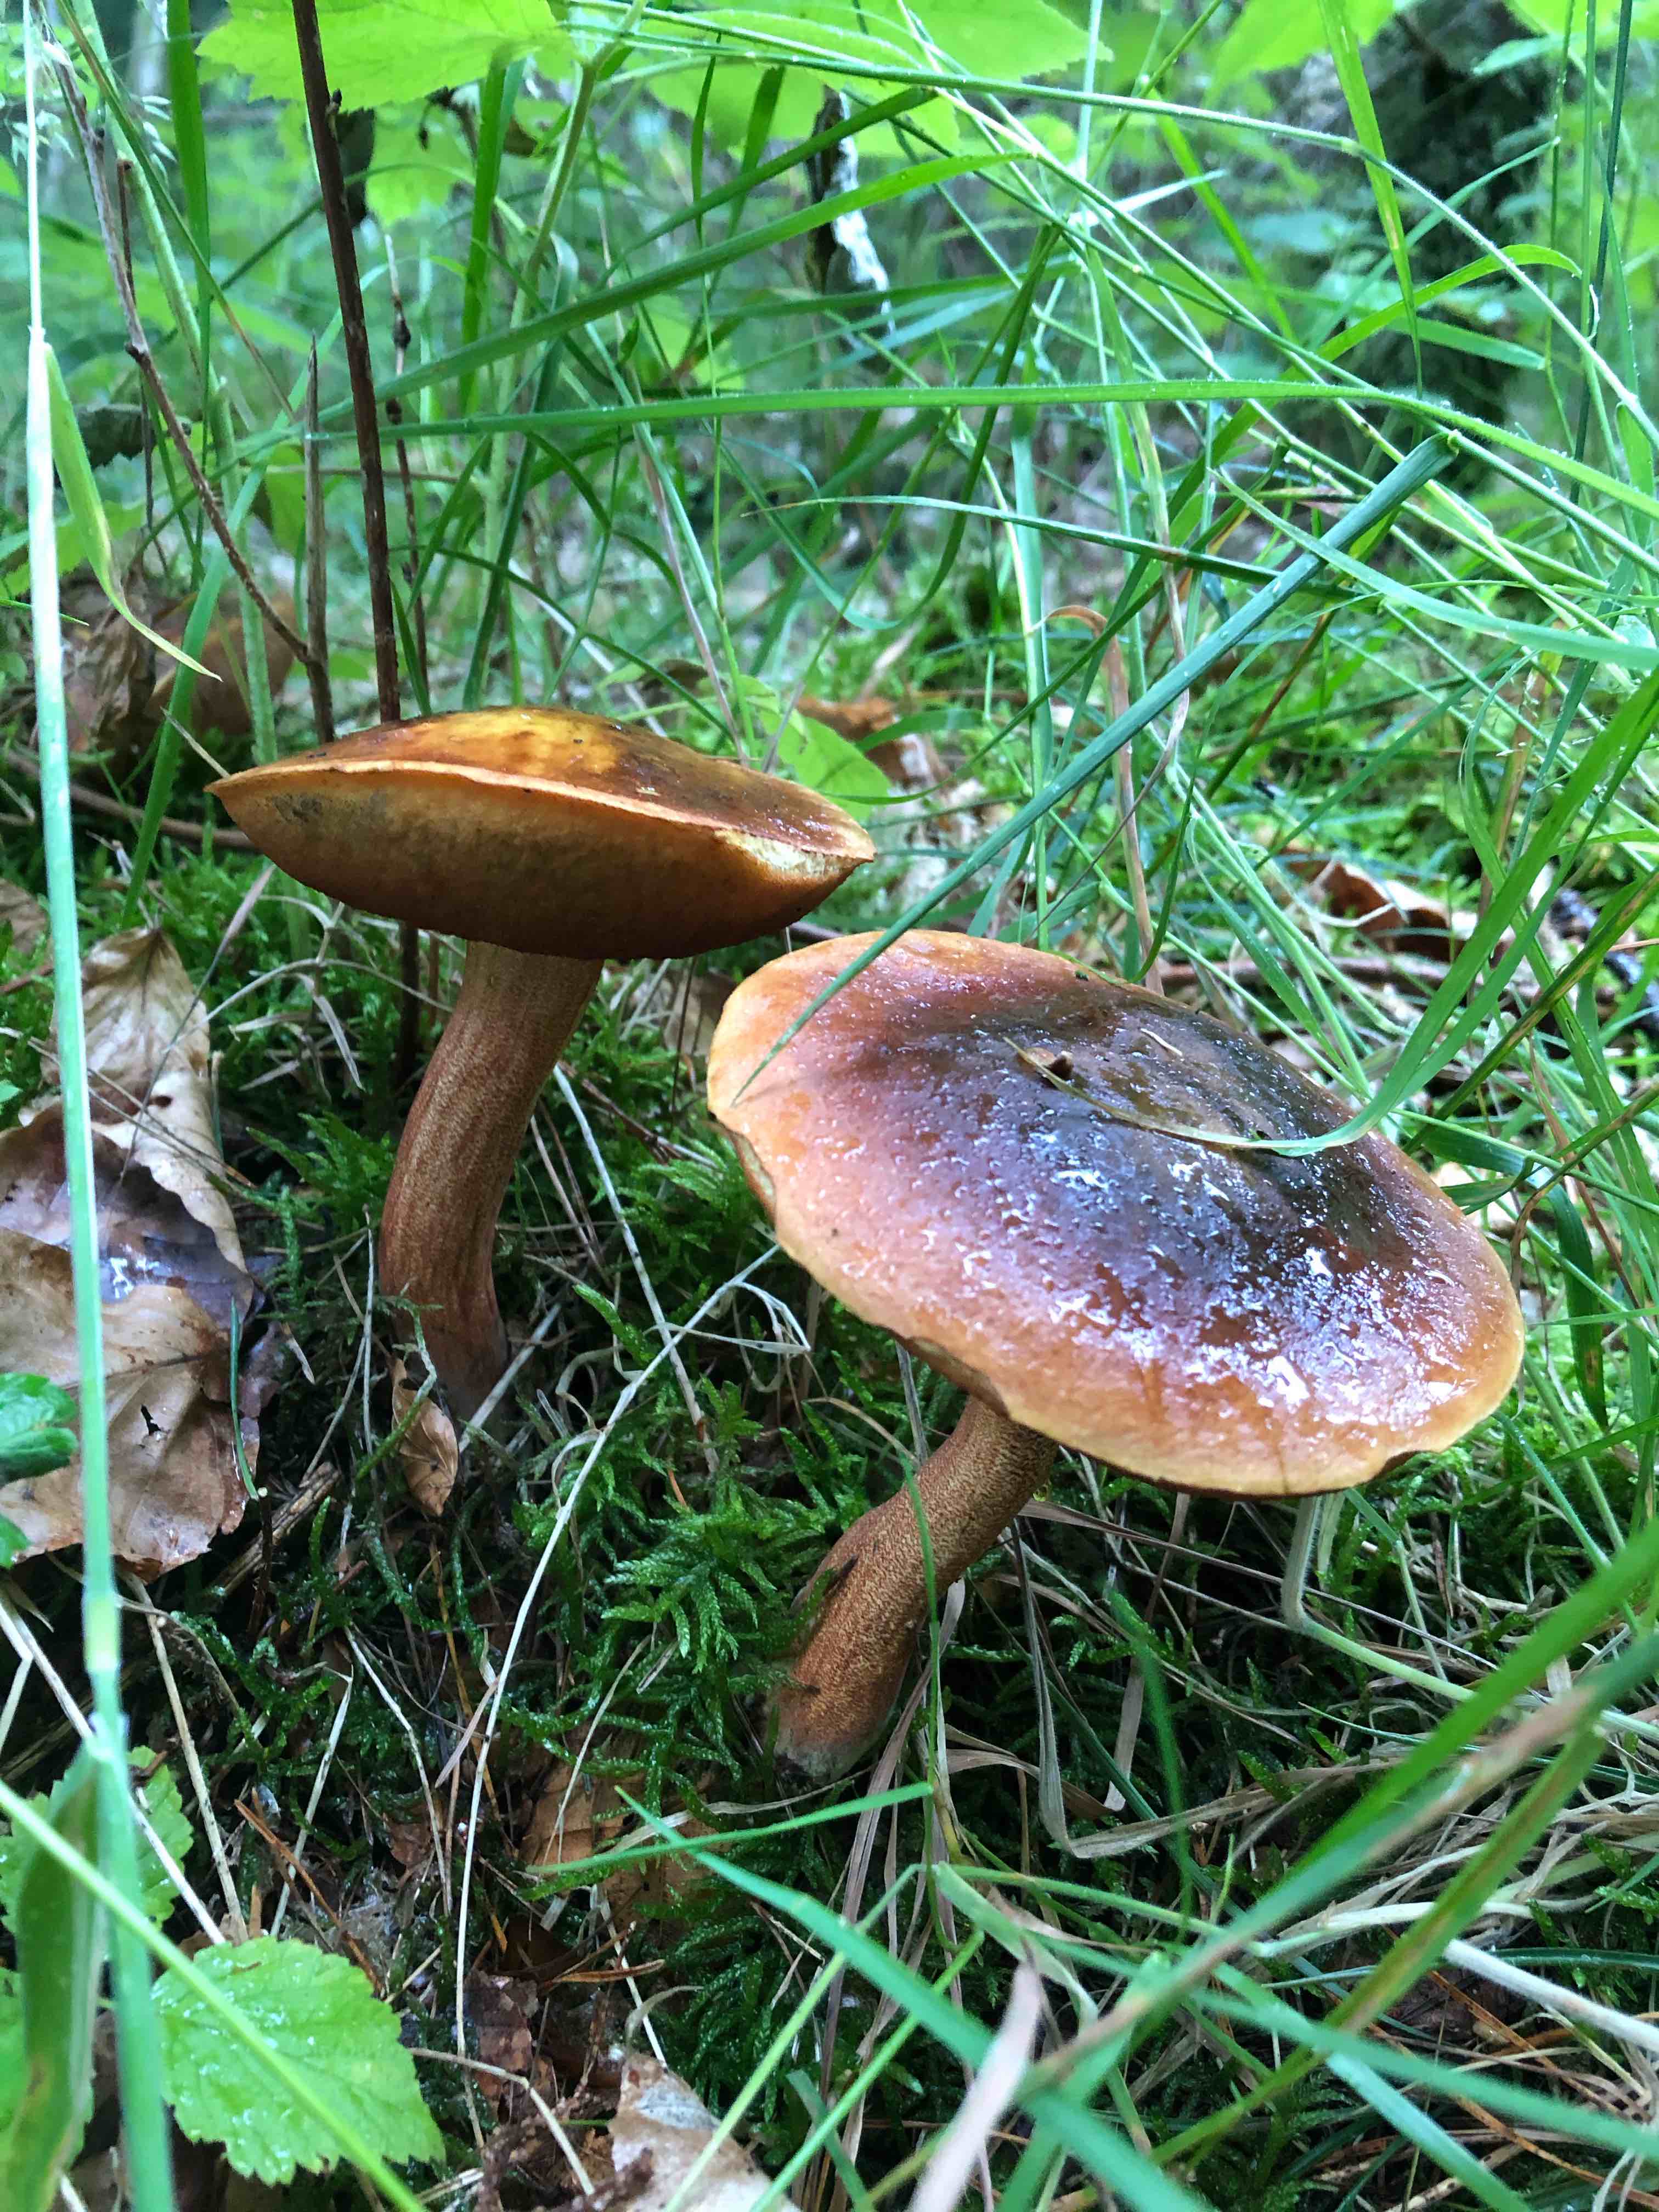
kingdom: Fungi
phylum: Basidiomycota
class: Agaricomycetes
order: Boletales
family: Boletaceae
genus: Neoboletus
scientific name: Neoboletus erythropus
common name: punktstokket indigorørhat
